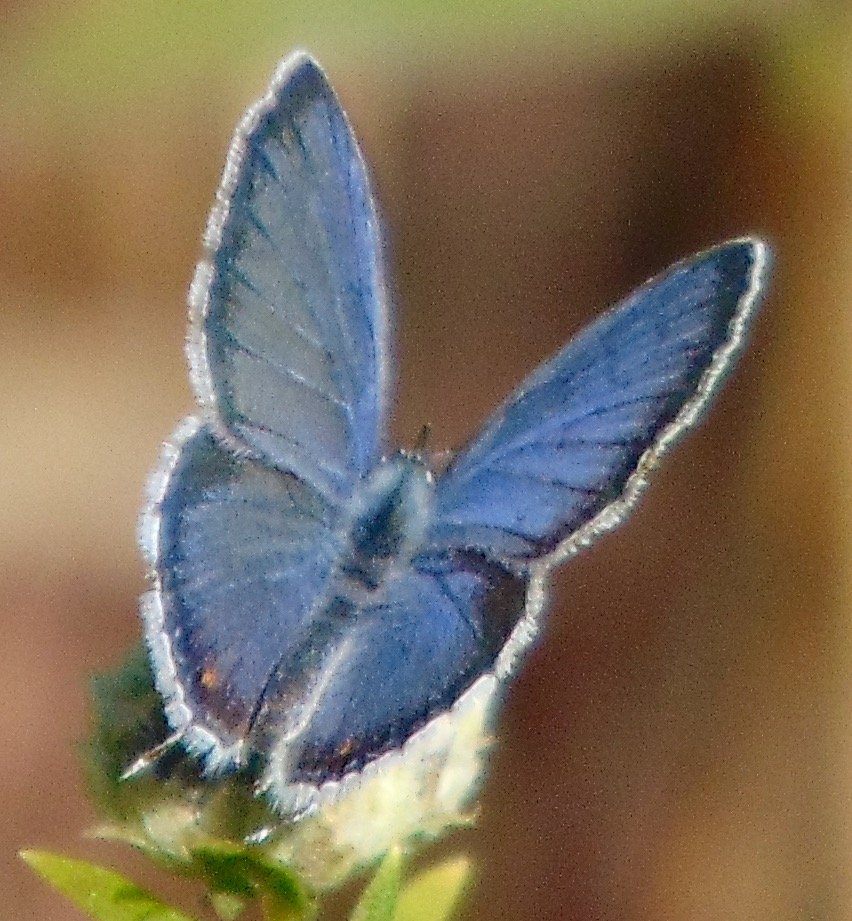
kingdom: Animalia
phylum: Arthropoda
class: Insecta
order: Lepidoptera
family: Lycaenidae
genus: Elkalyce
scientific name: Elkalyce comyntas
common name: Eastern Tailed-Blue
